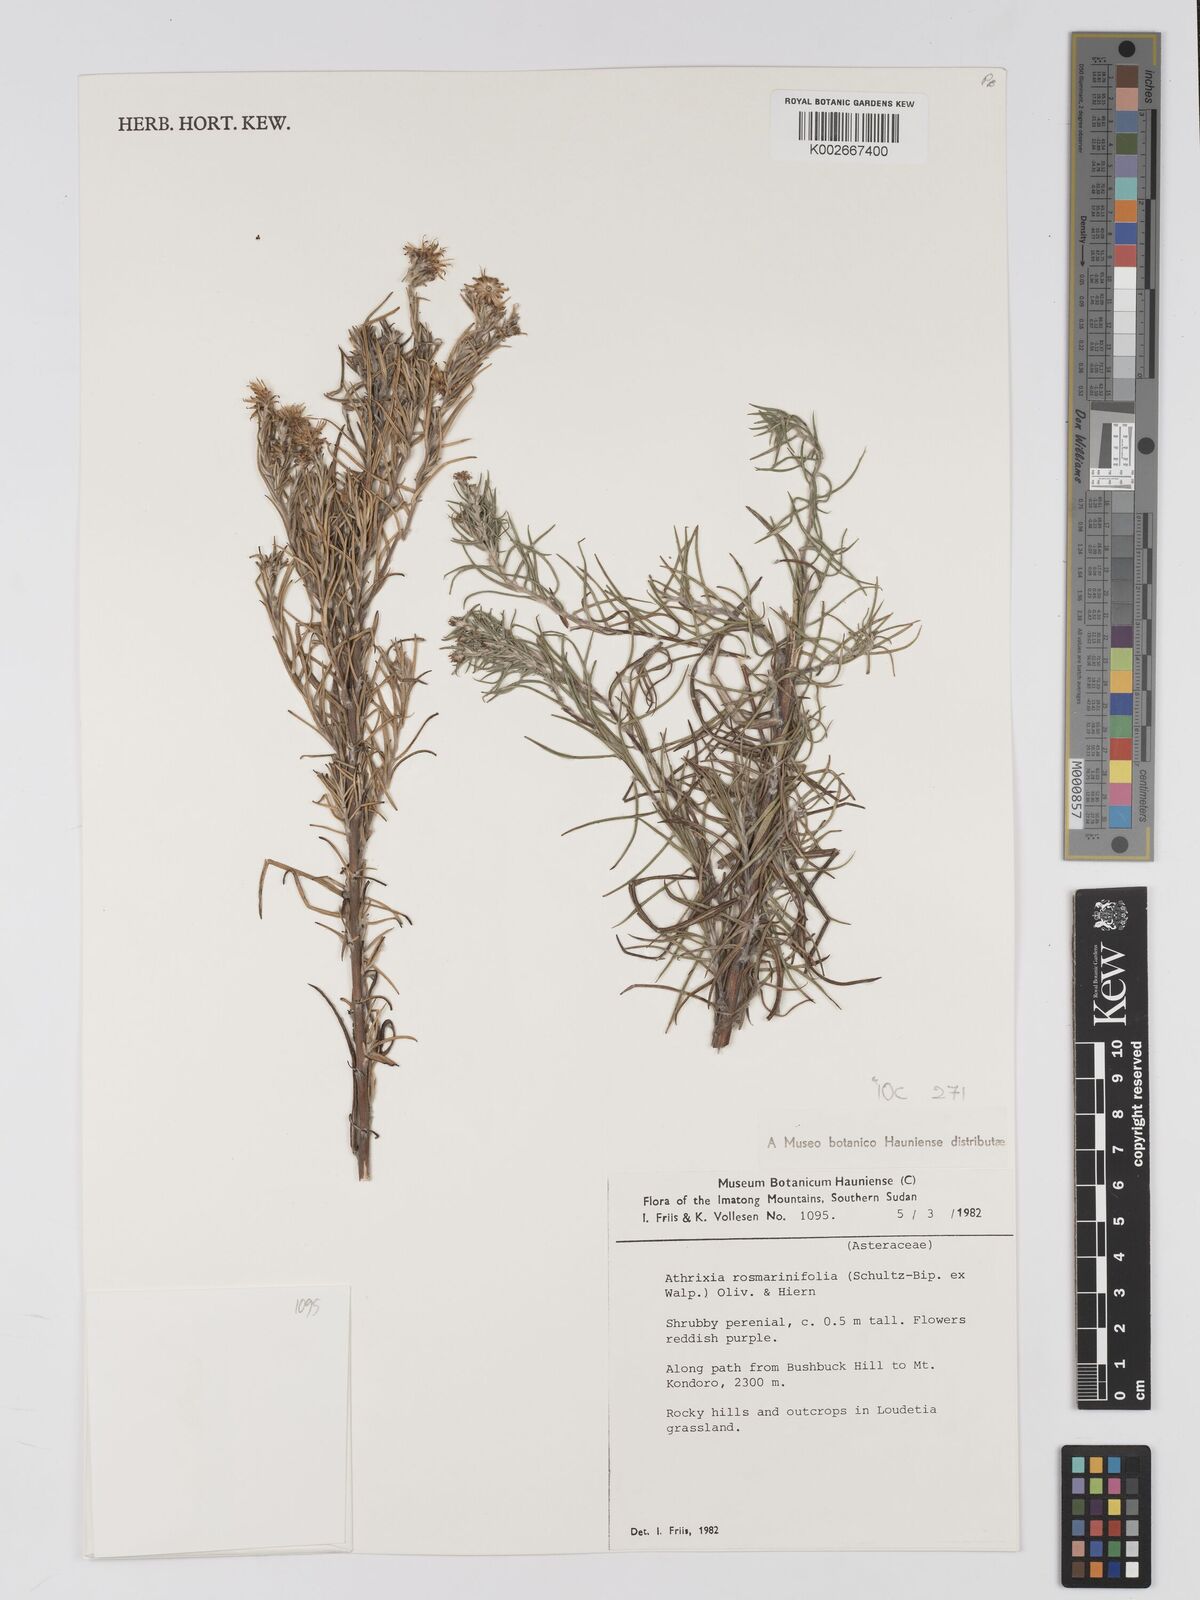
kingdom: Plantae
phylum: Tracheophyta
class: Magnoliopsida
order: Asterales
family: Asteraceae
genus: Athrixia
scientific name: Athrixia rosmarinifolia
